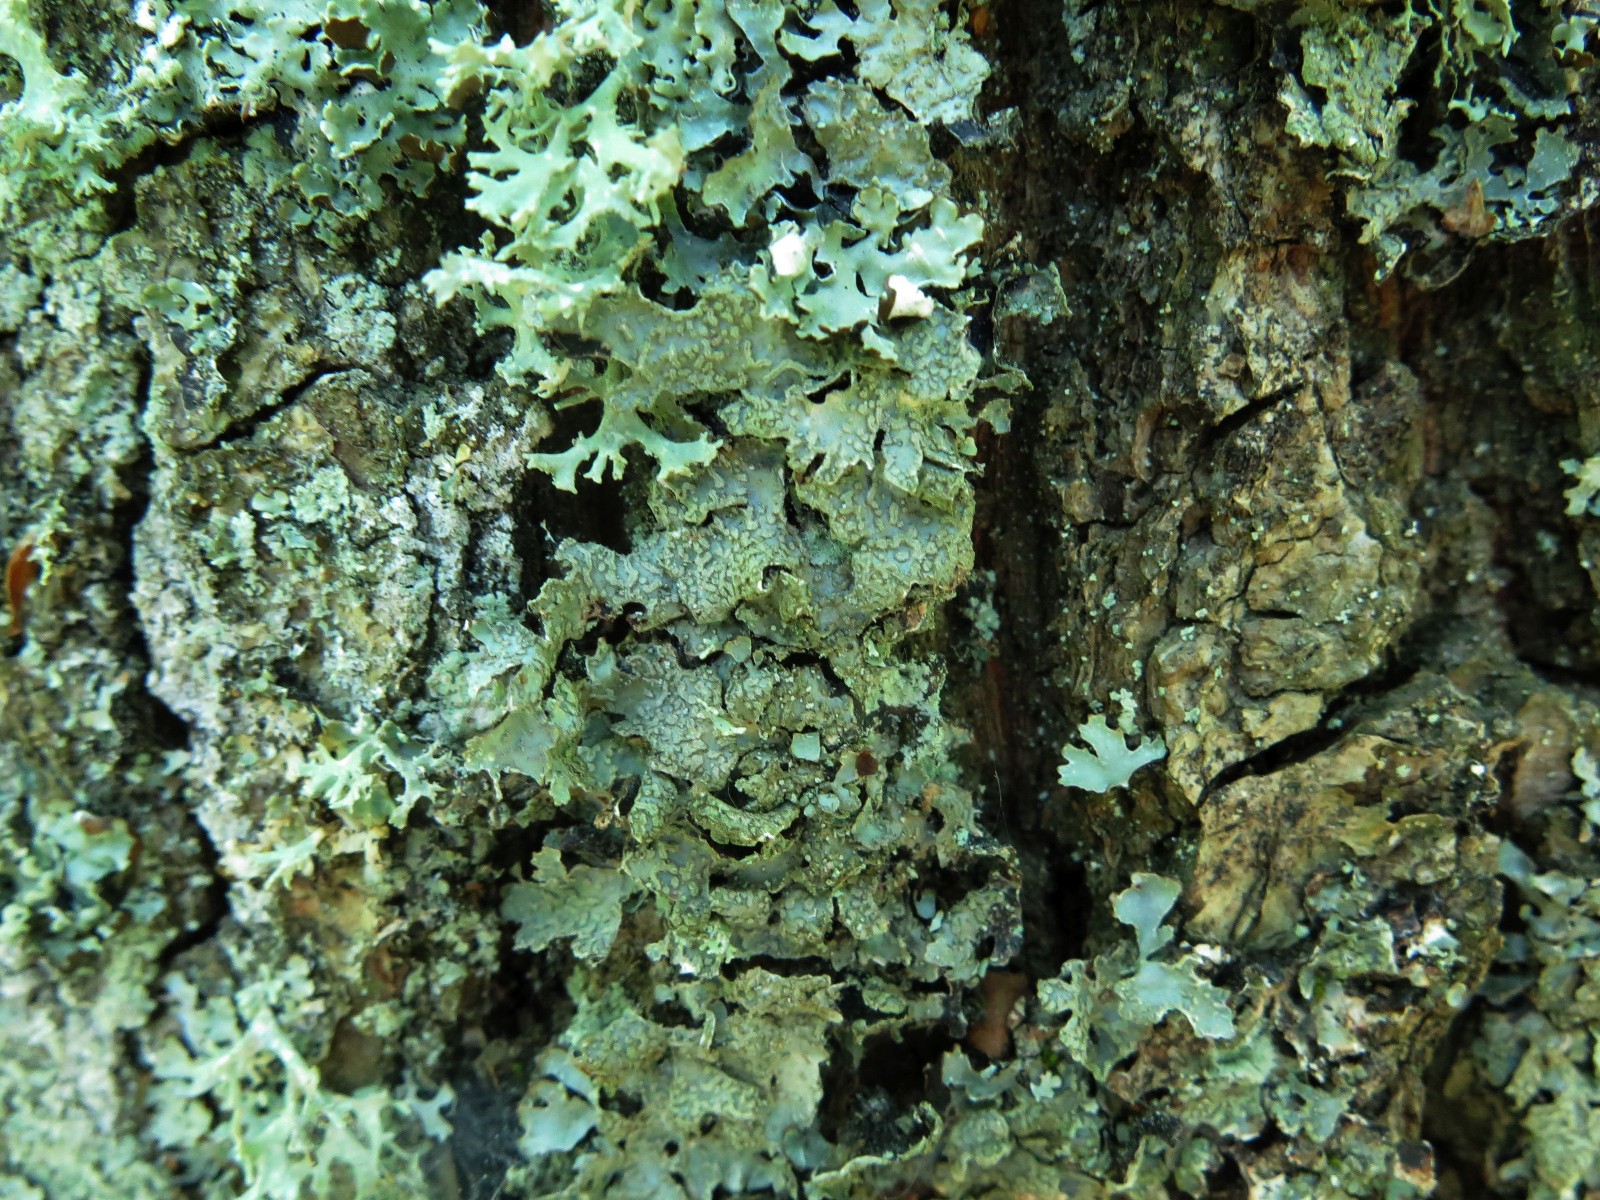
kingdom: Fungi
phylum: Ascomycota
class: Lecanoromycetes
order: Lecanorales
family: Parmeliaceae
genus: Parmelia
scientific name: Parmelia sulcata
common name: rynket skållav
